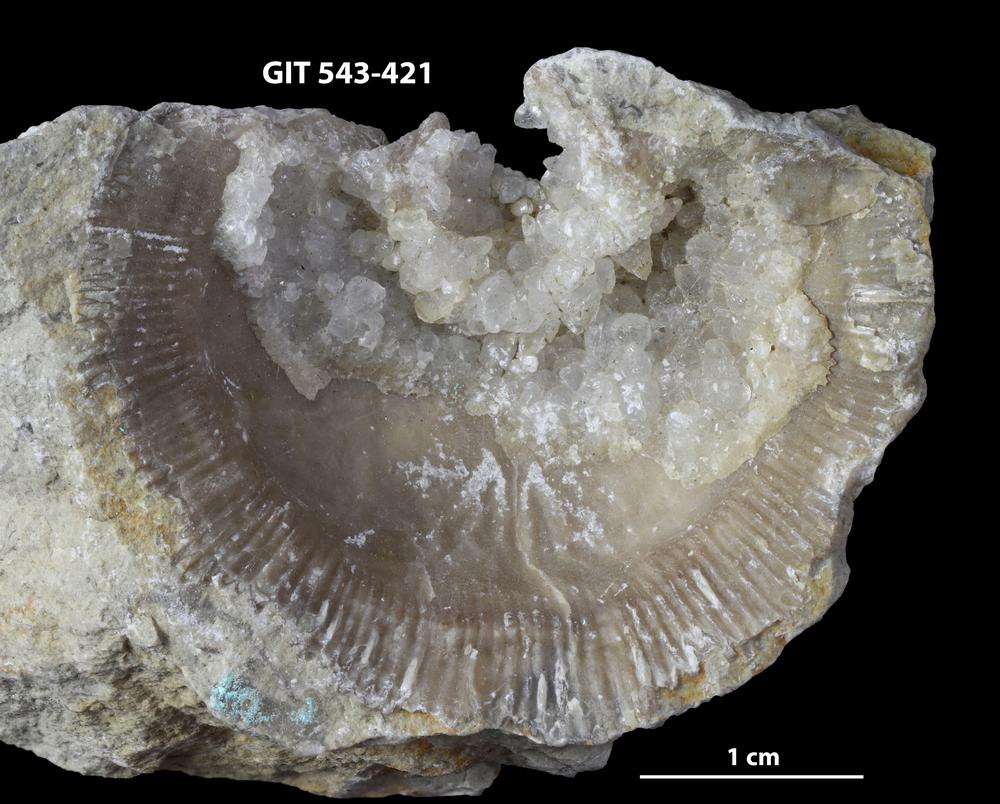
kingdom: Animalia
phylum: Brachiopoda
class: Rhynchonellata
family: Clitambonitidae
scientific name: Clitambonitidae
